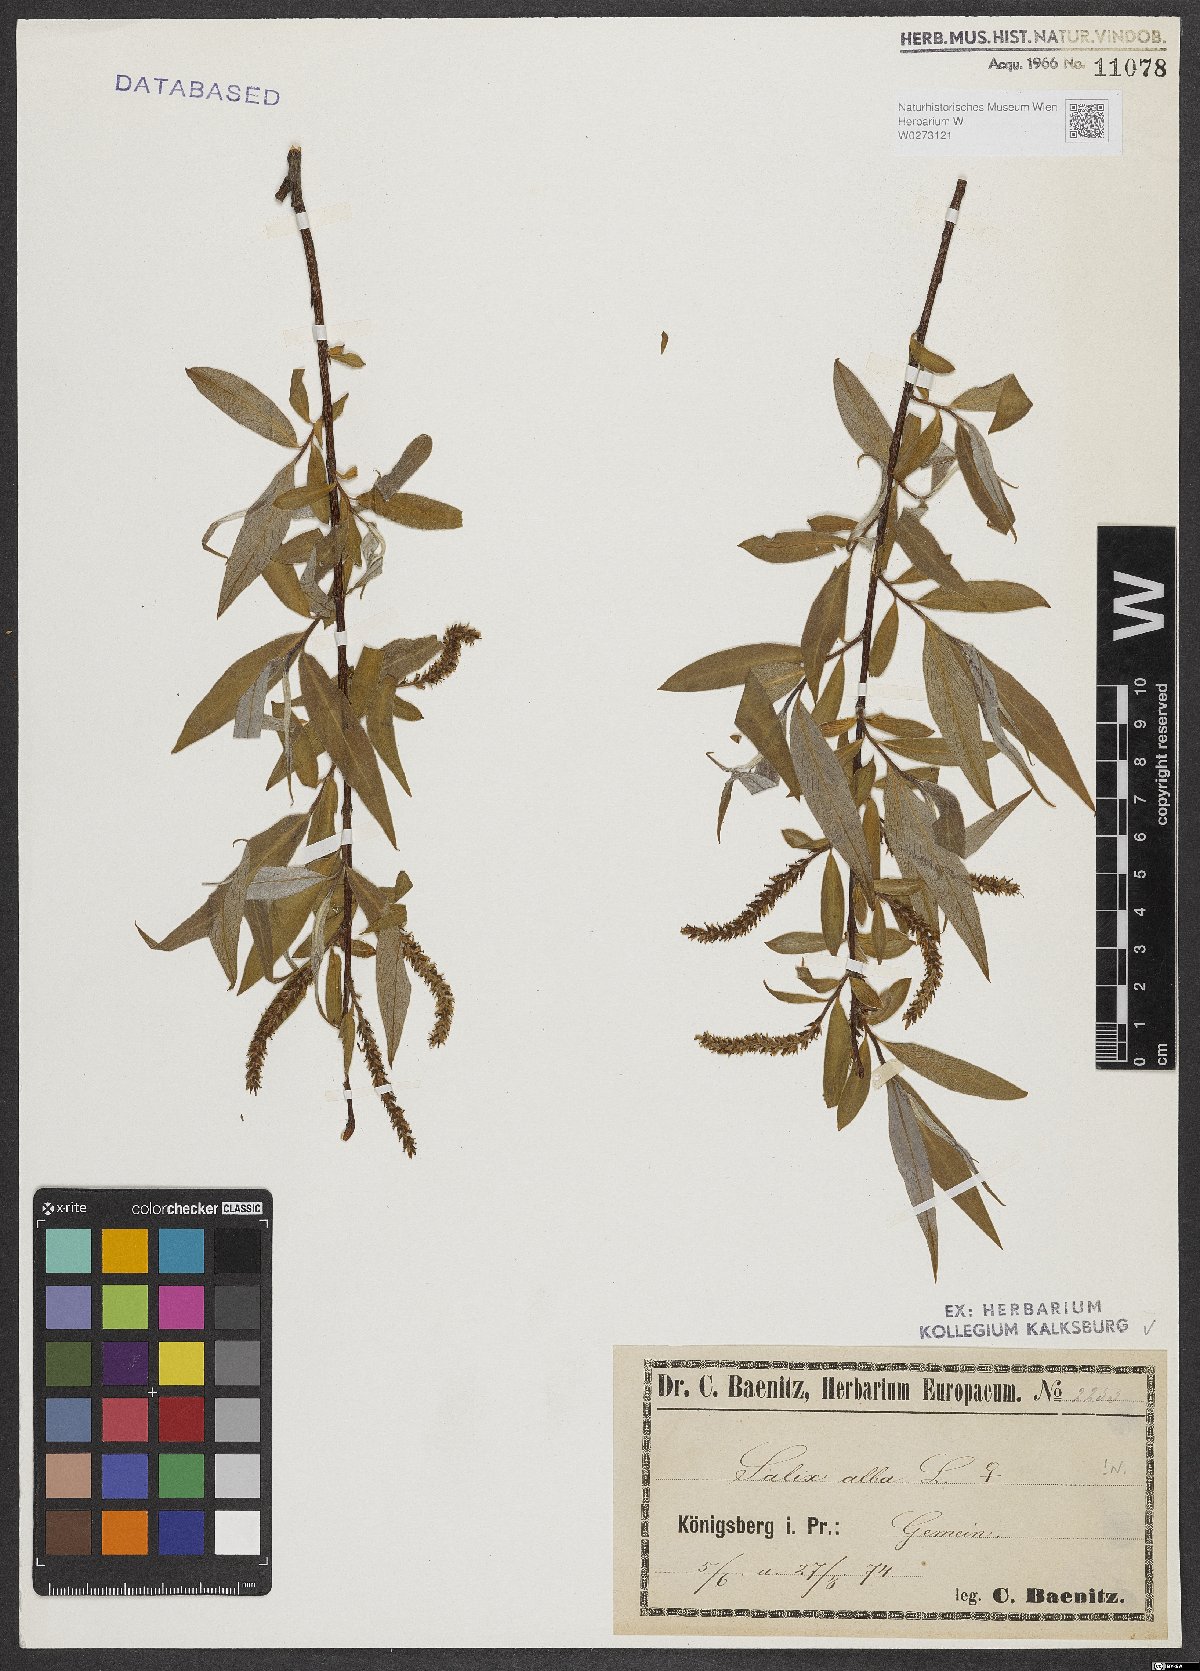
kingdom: Plantae
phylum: Tracheophyta
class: Magnoliopsida
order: Malpighiales
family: Salicaceae
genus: Salix
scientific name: Salix alba
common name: White willow
